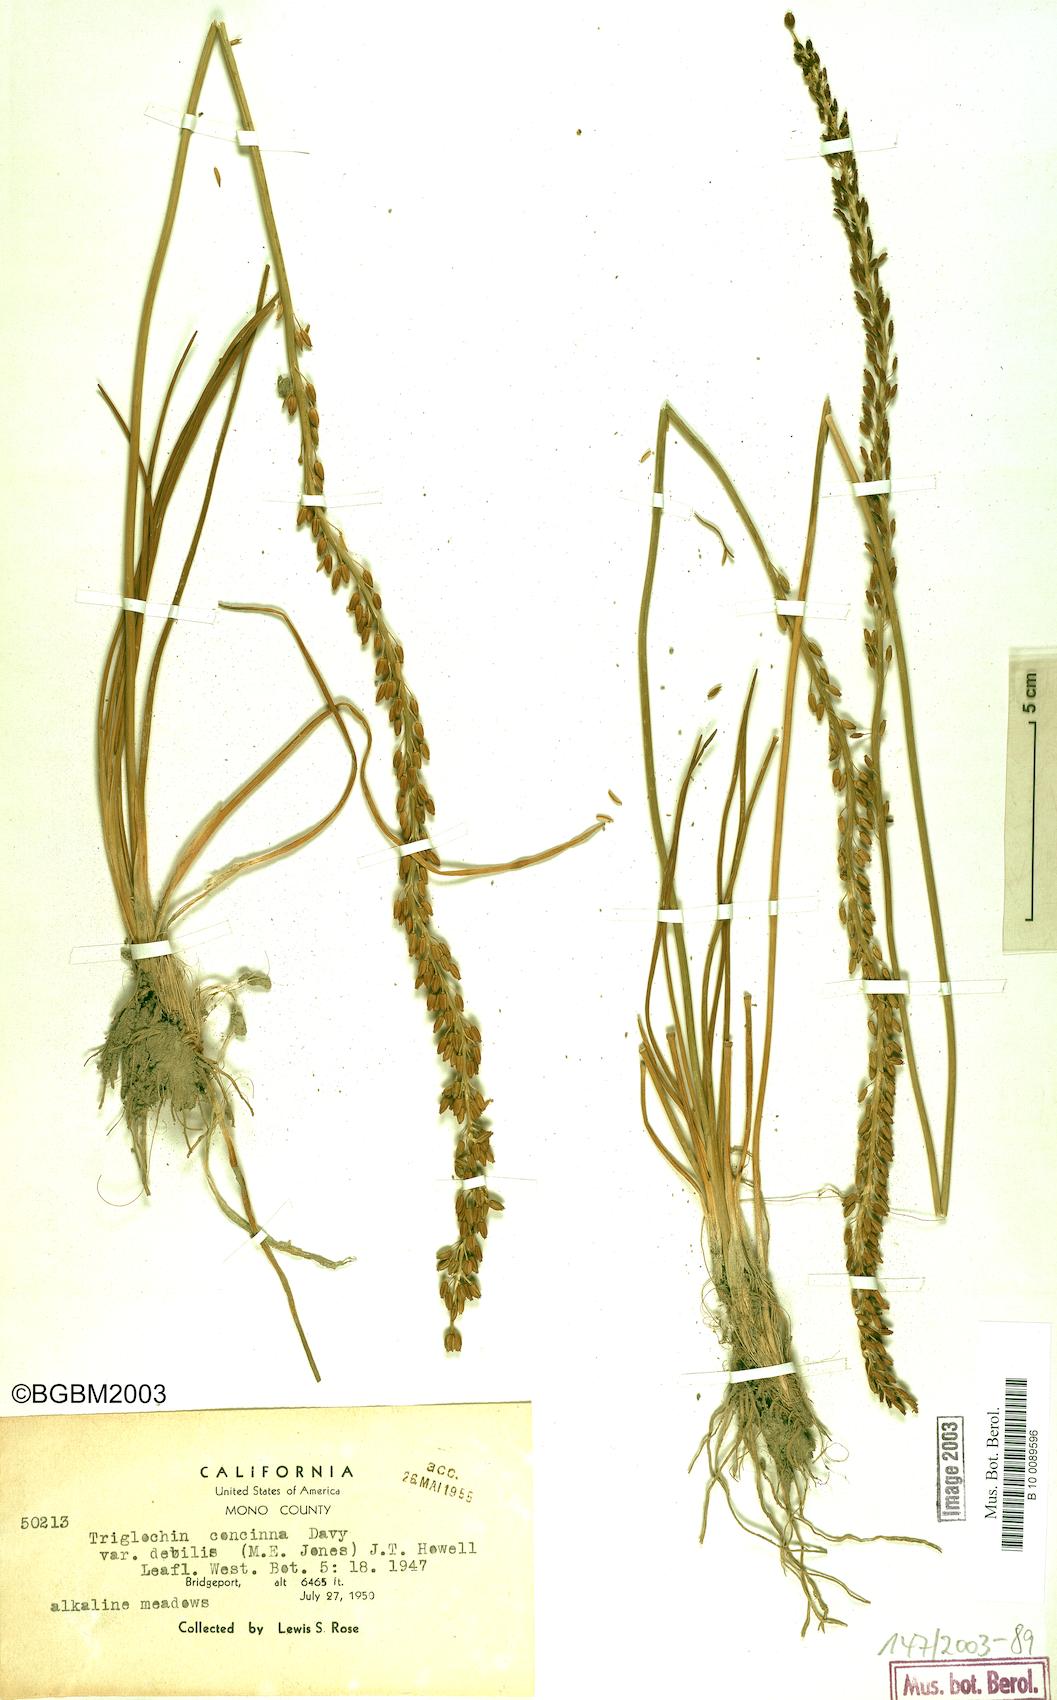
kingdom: Plantae
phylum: Tracheophyta
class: Liliopsida
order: Alismatales
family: Juncaginaceae
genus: Triglochin
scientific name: Triglochin maritima
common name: Sea arrowgrass
